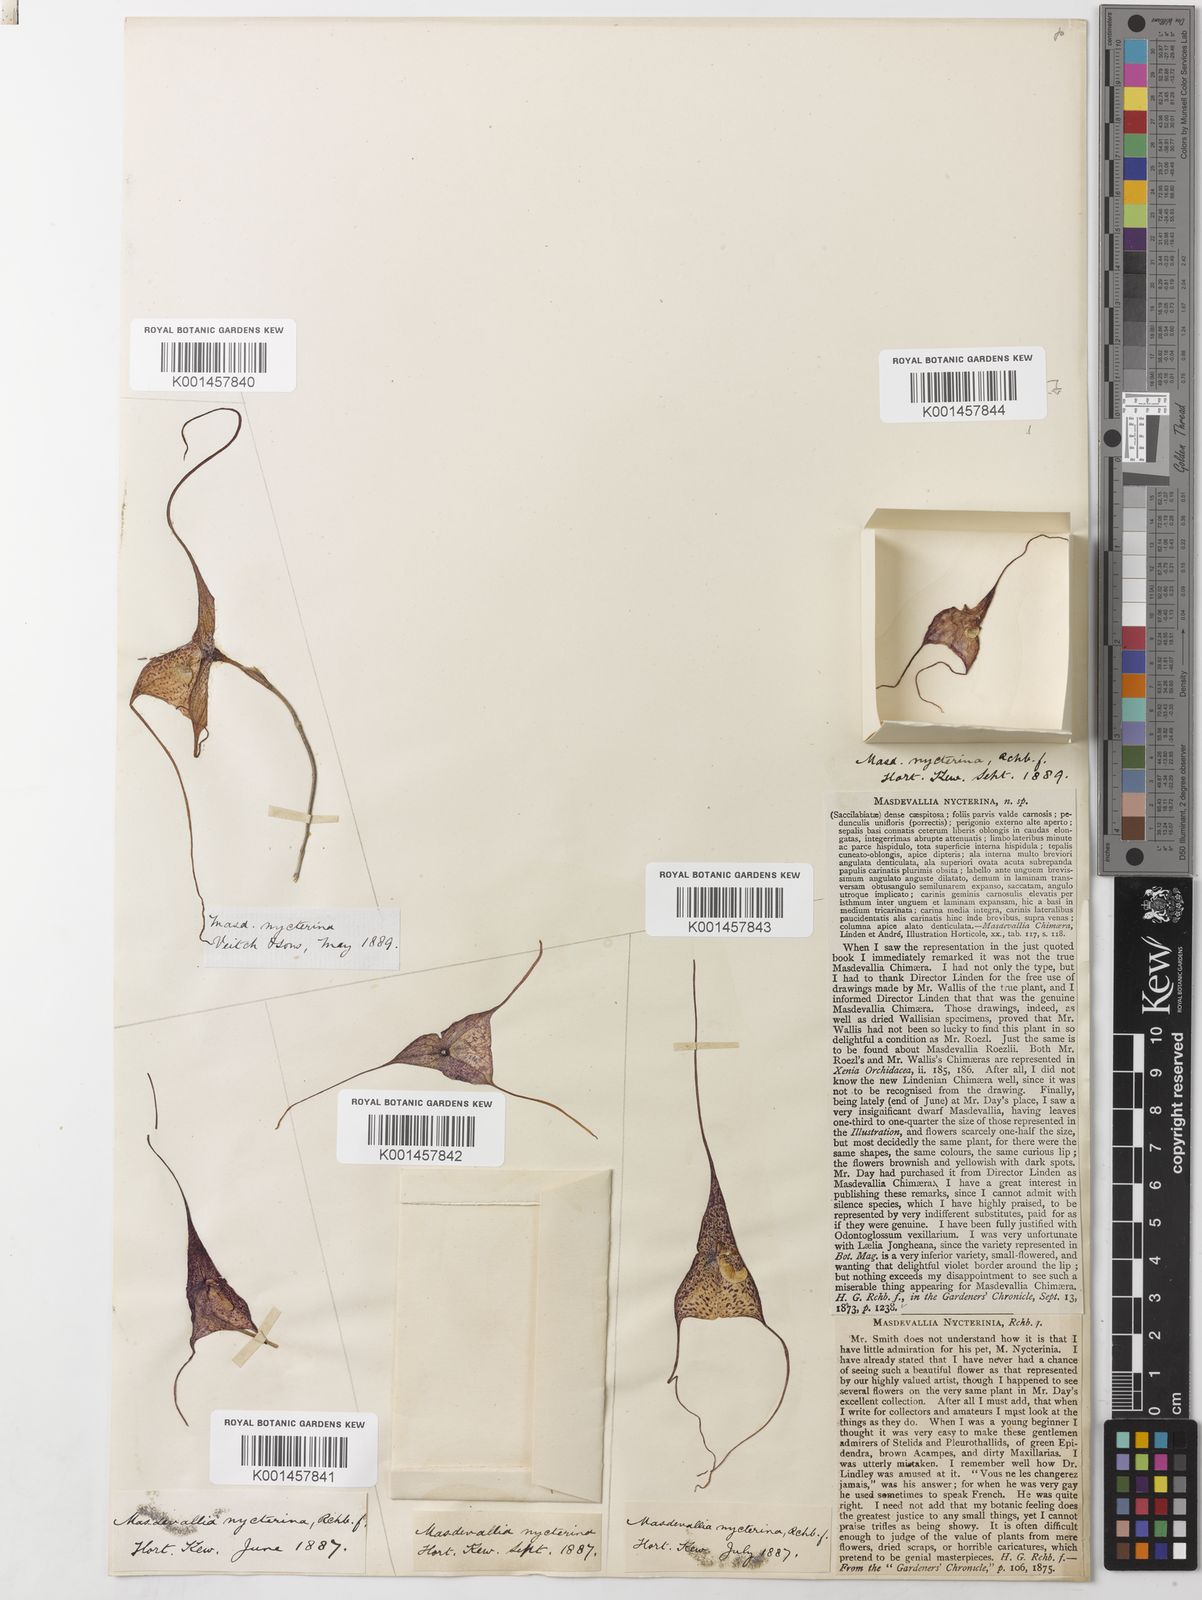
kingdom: Plantae
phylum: Tracheophyta
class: Liliopsida
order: Asparagales
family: Orchidaceae
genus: Dracula
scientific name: Dracula nycterina
